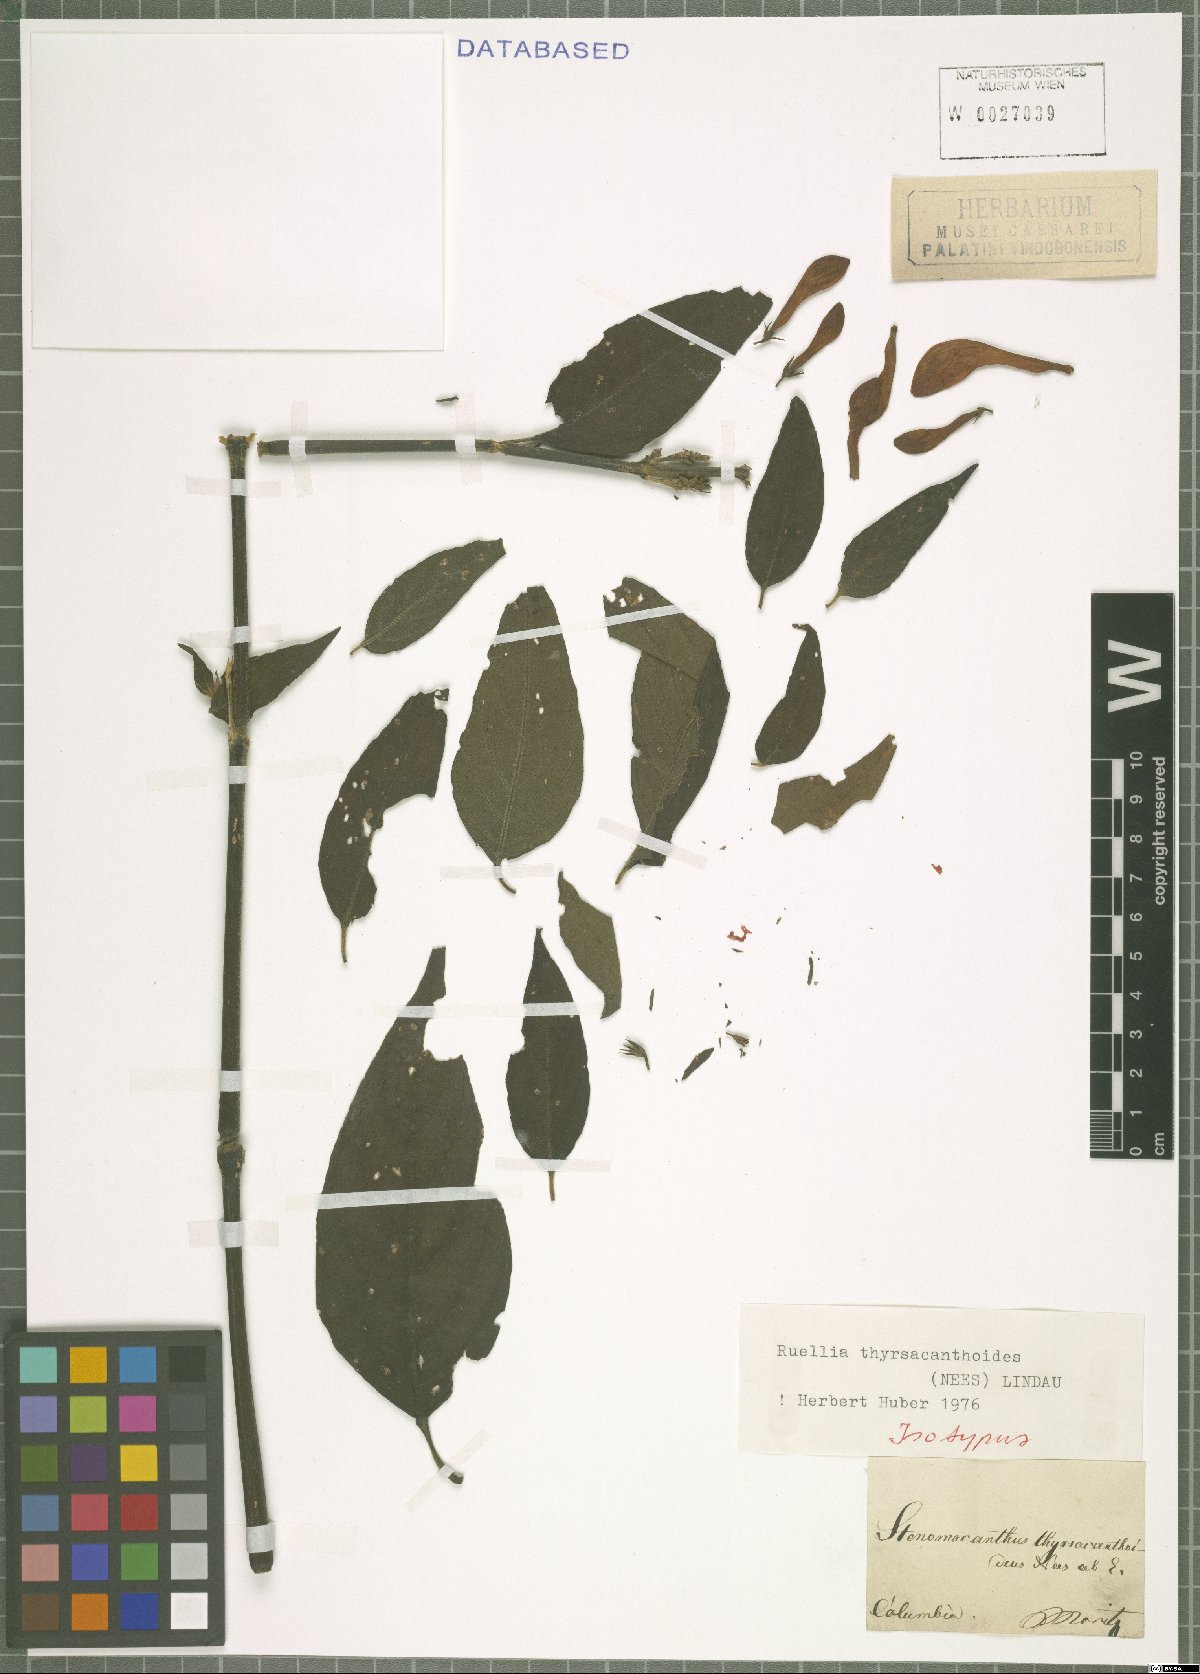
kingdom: Plantae
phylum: Tracheophyta
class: Magnoliopsida
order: Lamiales
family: Acanthaceae
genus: Ruellia
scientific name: Ruellia humboldtiana
